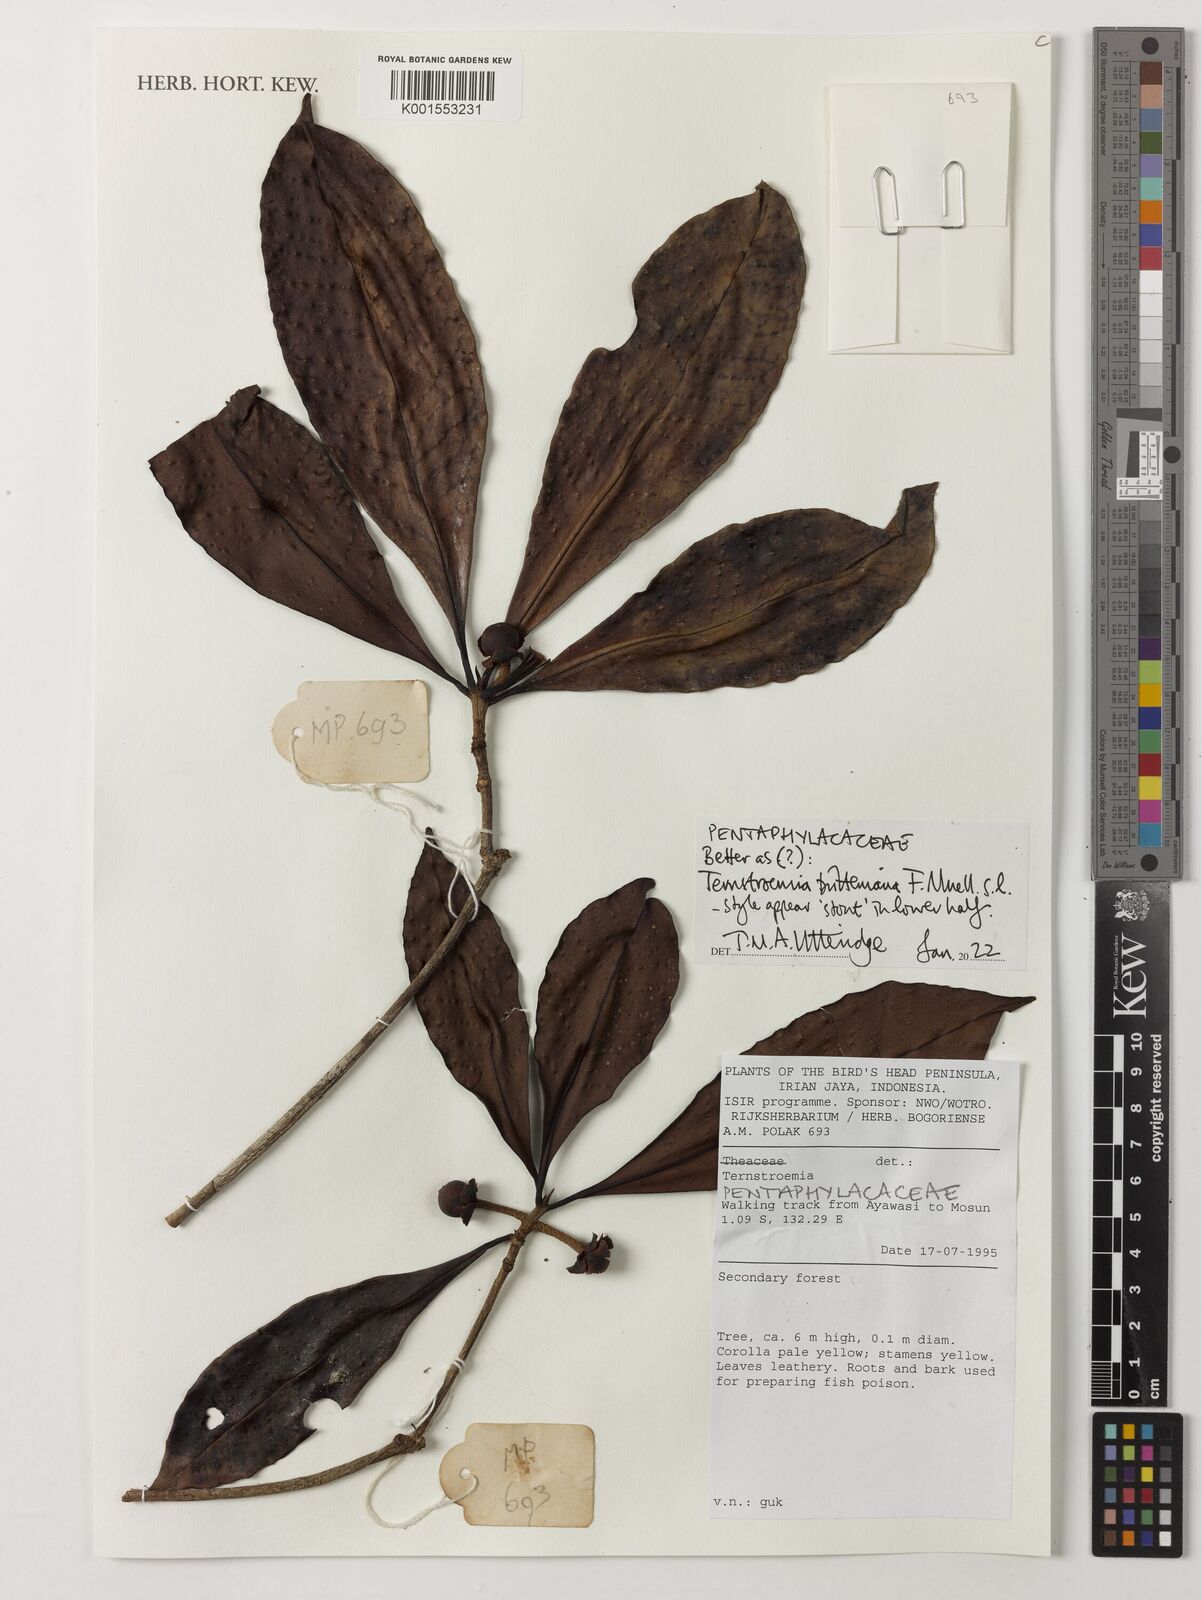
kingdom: Plantae
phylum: Tracheophyta
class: Magnoliopsida
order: Ericales
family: Pentaphylacaceae
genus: Ternstroemia
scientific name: Ternstroemia britteniana
